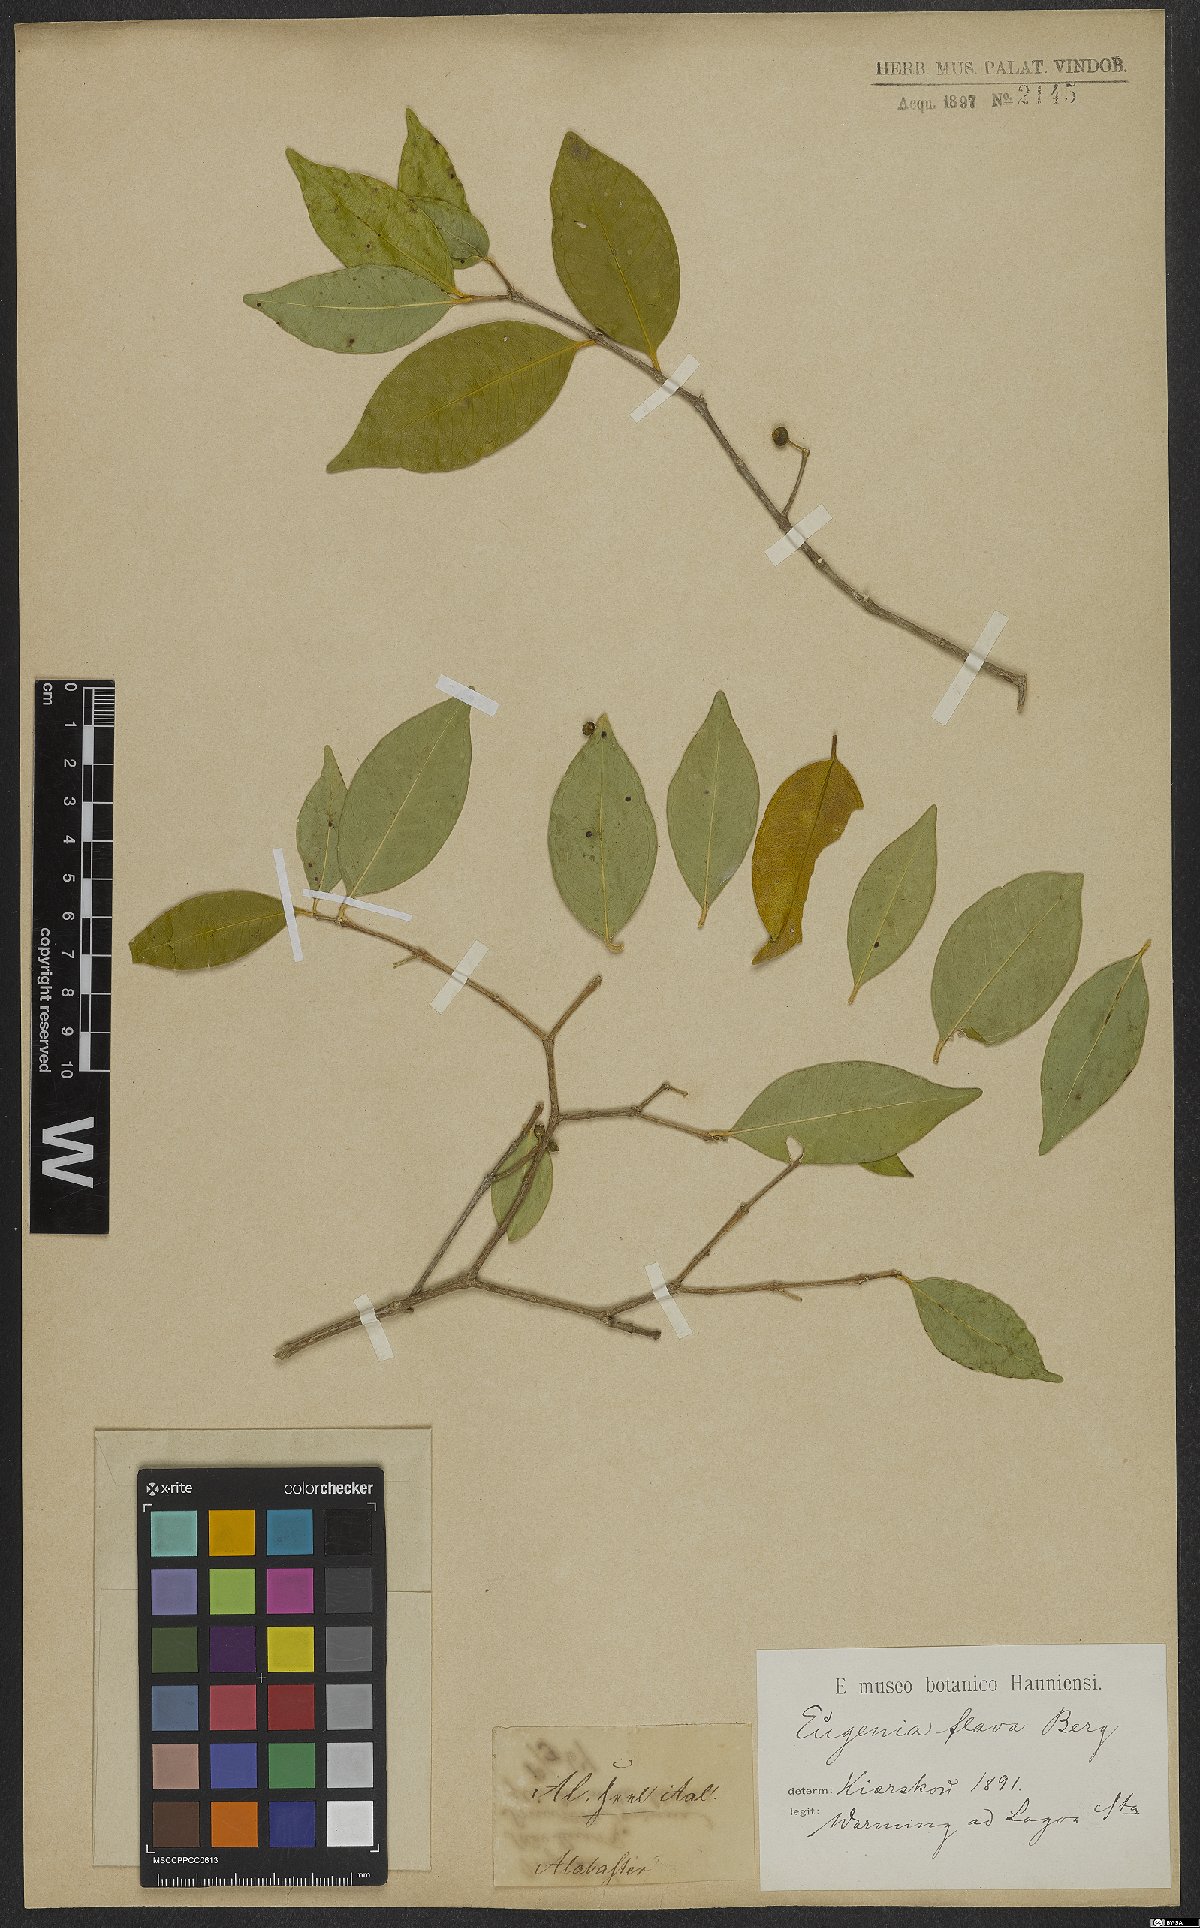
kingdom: Plantae
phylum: Tracheophyta
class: Magnoliopsida
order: Myrtales
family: Myrtaceae
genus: Eugenia
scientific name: Eugenia punicifolia
